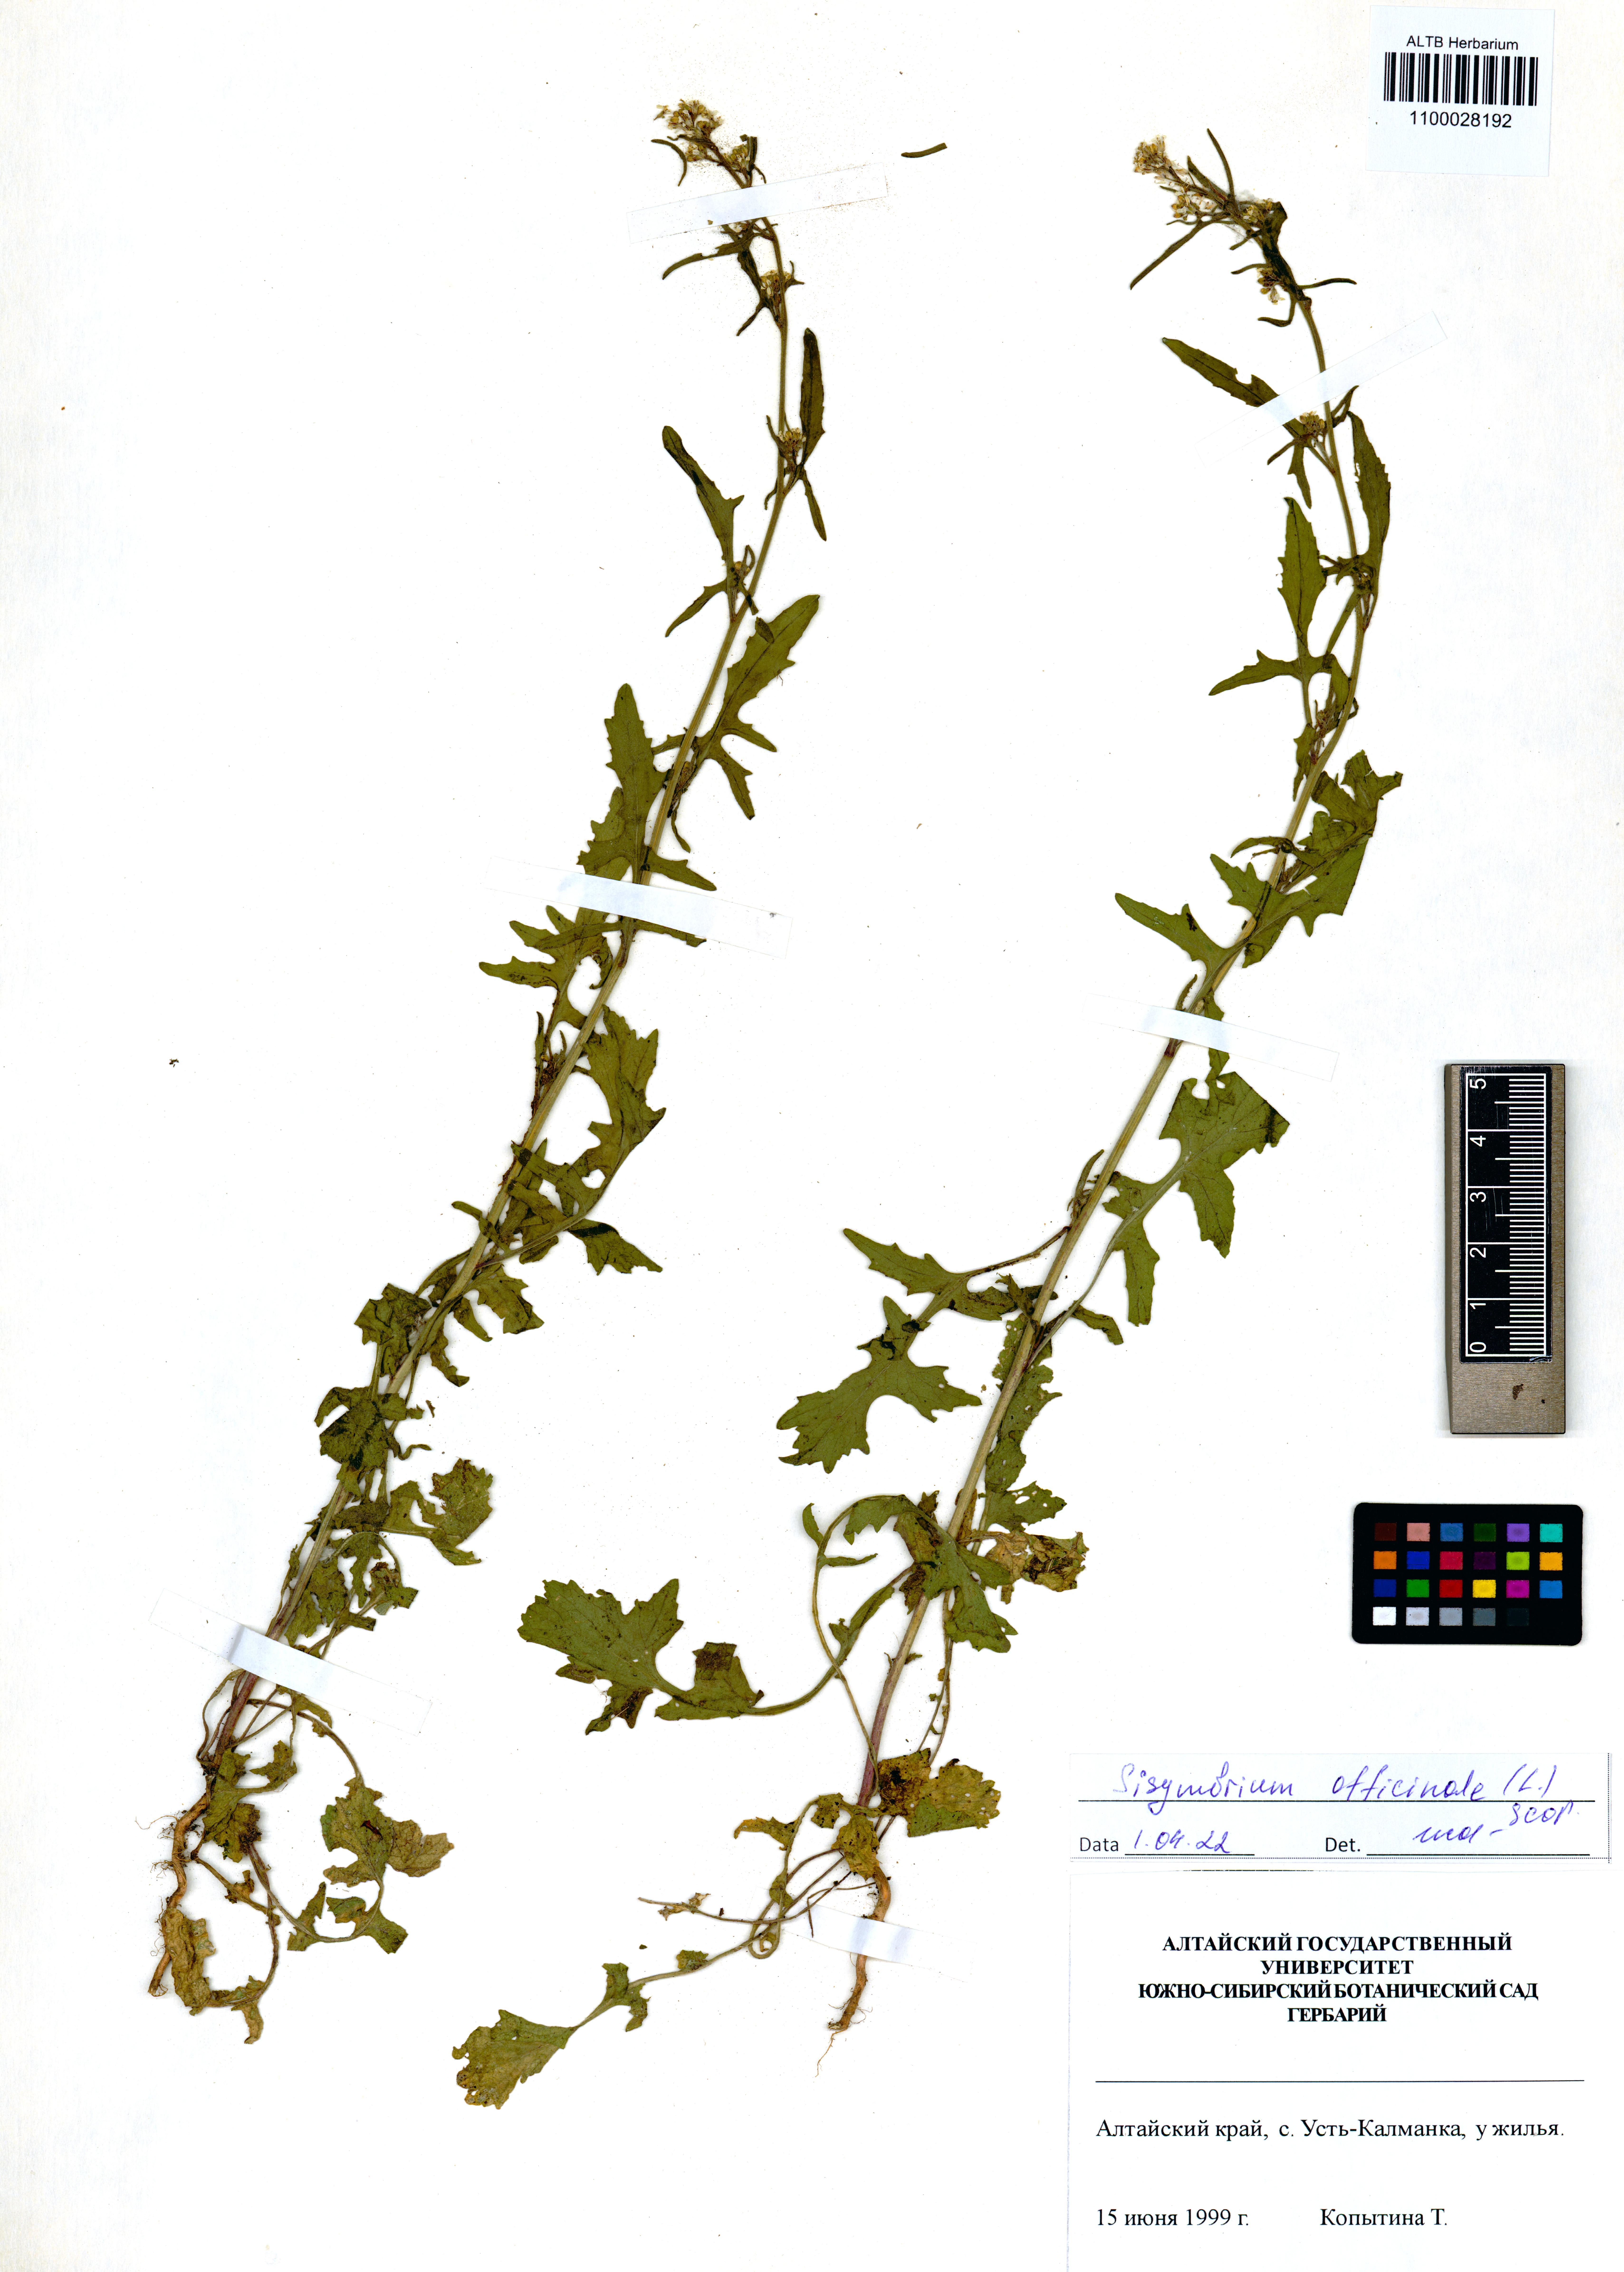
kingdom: Plantae
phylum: Tracheophyta
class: Magnoliopsida
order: Brassicales
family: Brassicaceae
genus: Sisymbrium
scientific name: Sisymbrium officinale
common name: Hedge mustard
